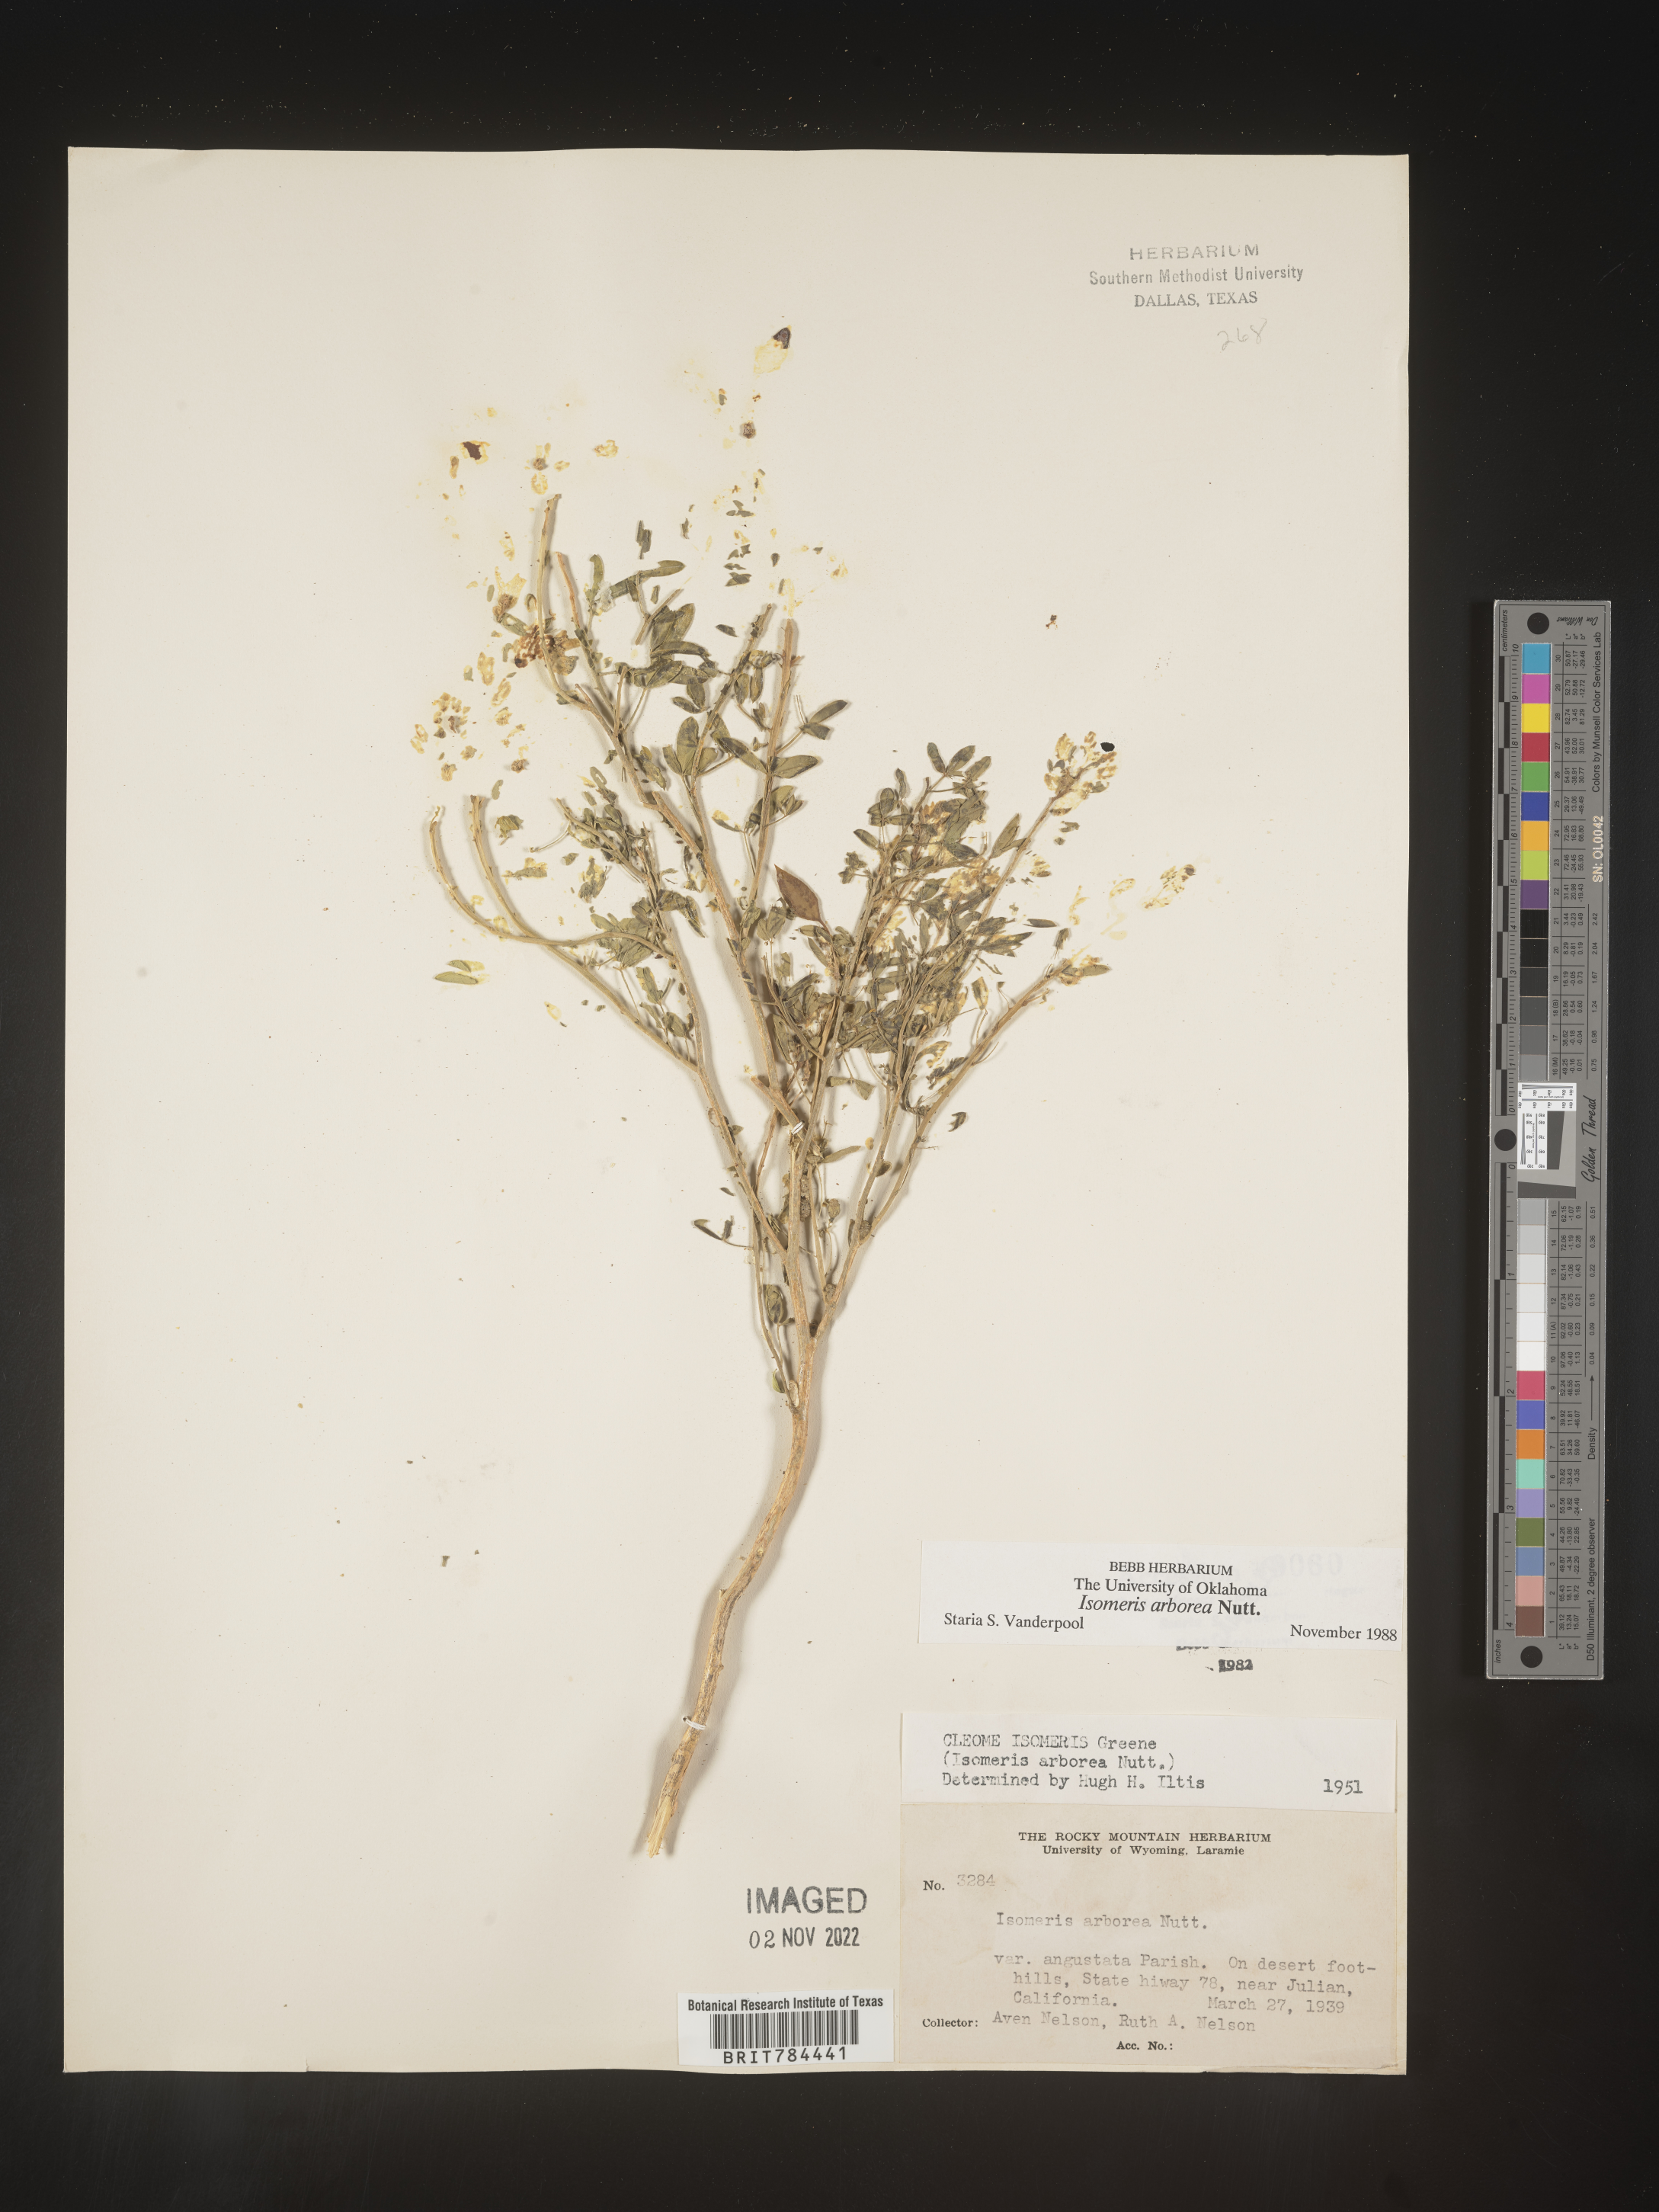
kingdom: Animalia
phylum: Arthropoda
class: Insecta
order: Hymenoptera
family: Ichneumonidae
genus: Isomeris
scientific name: Isomeris
